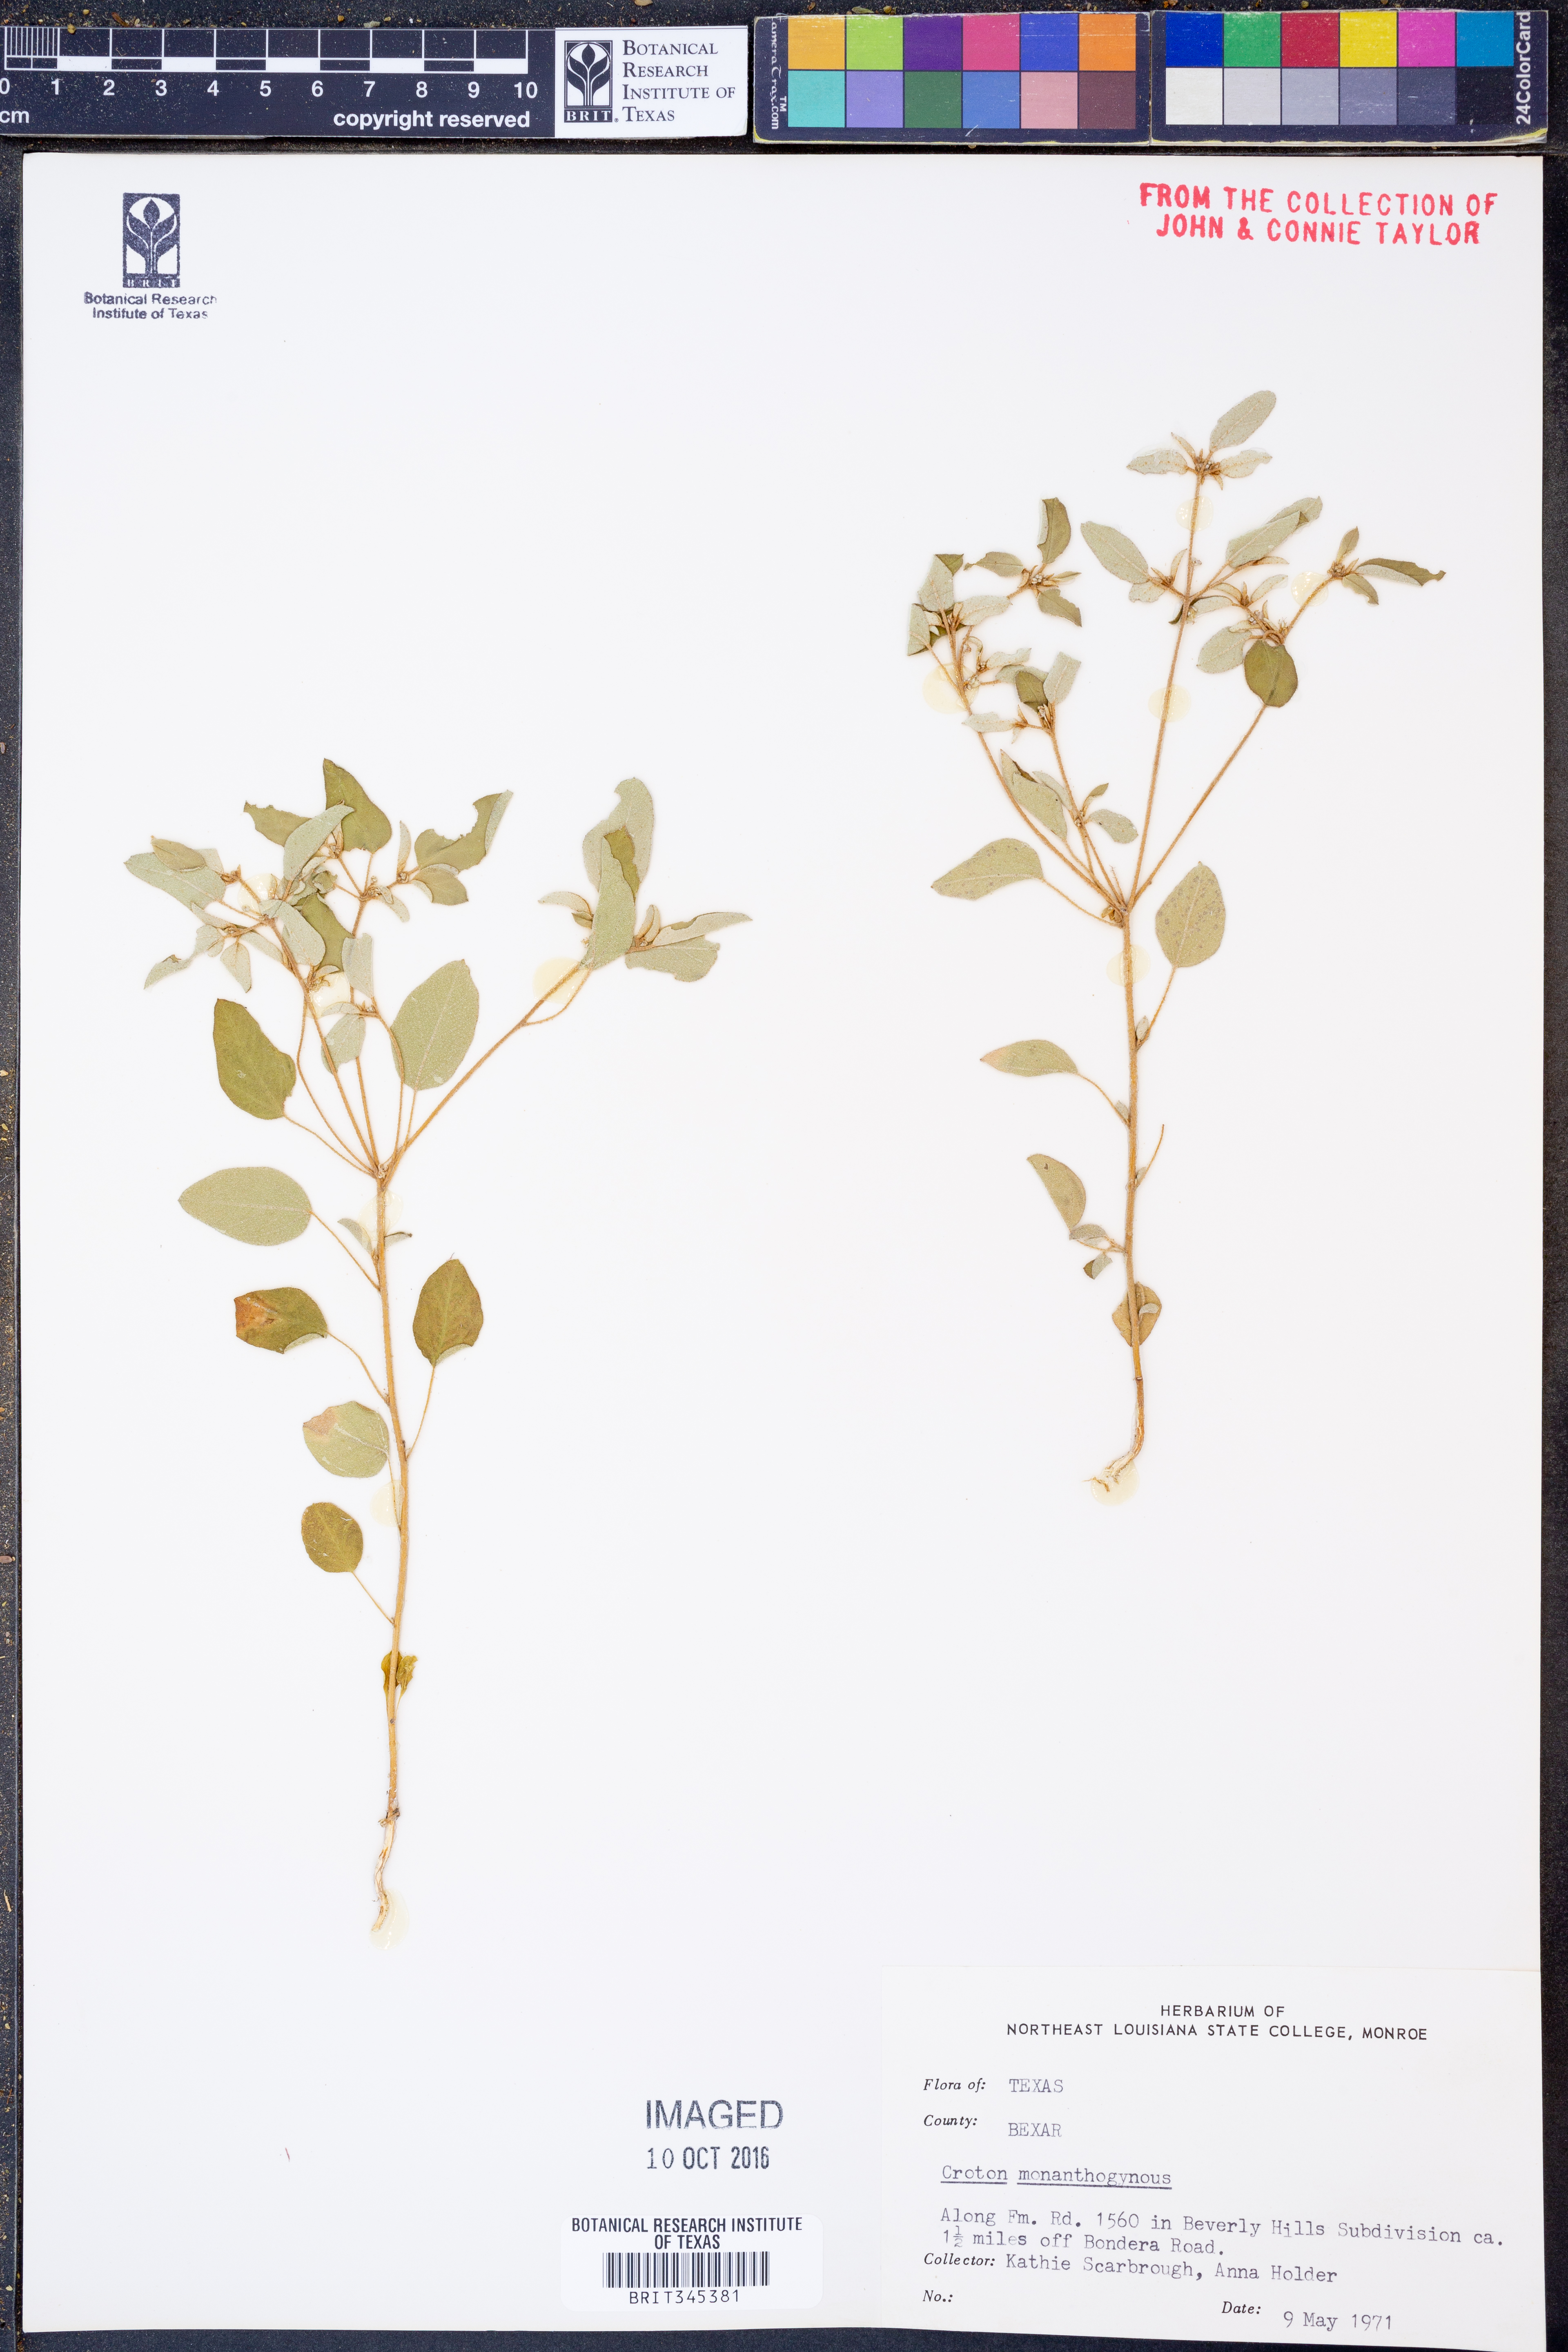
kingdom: Plantae
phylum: Tracheophyta
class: Magnoliopsida
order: Malpighiales
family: Euphorbiaceae
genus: Croton
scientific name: Croton monanthogynus
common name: One-seed croton
